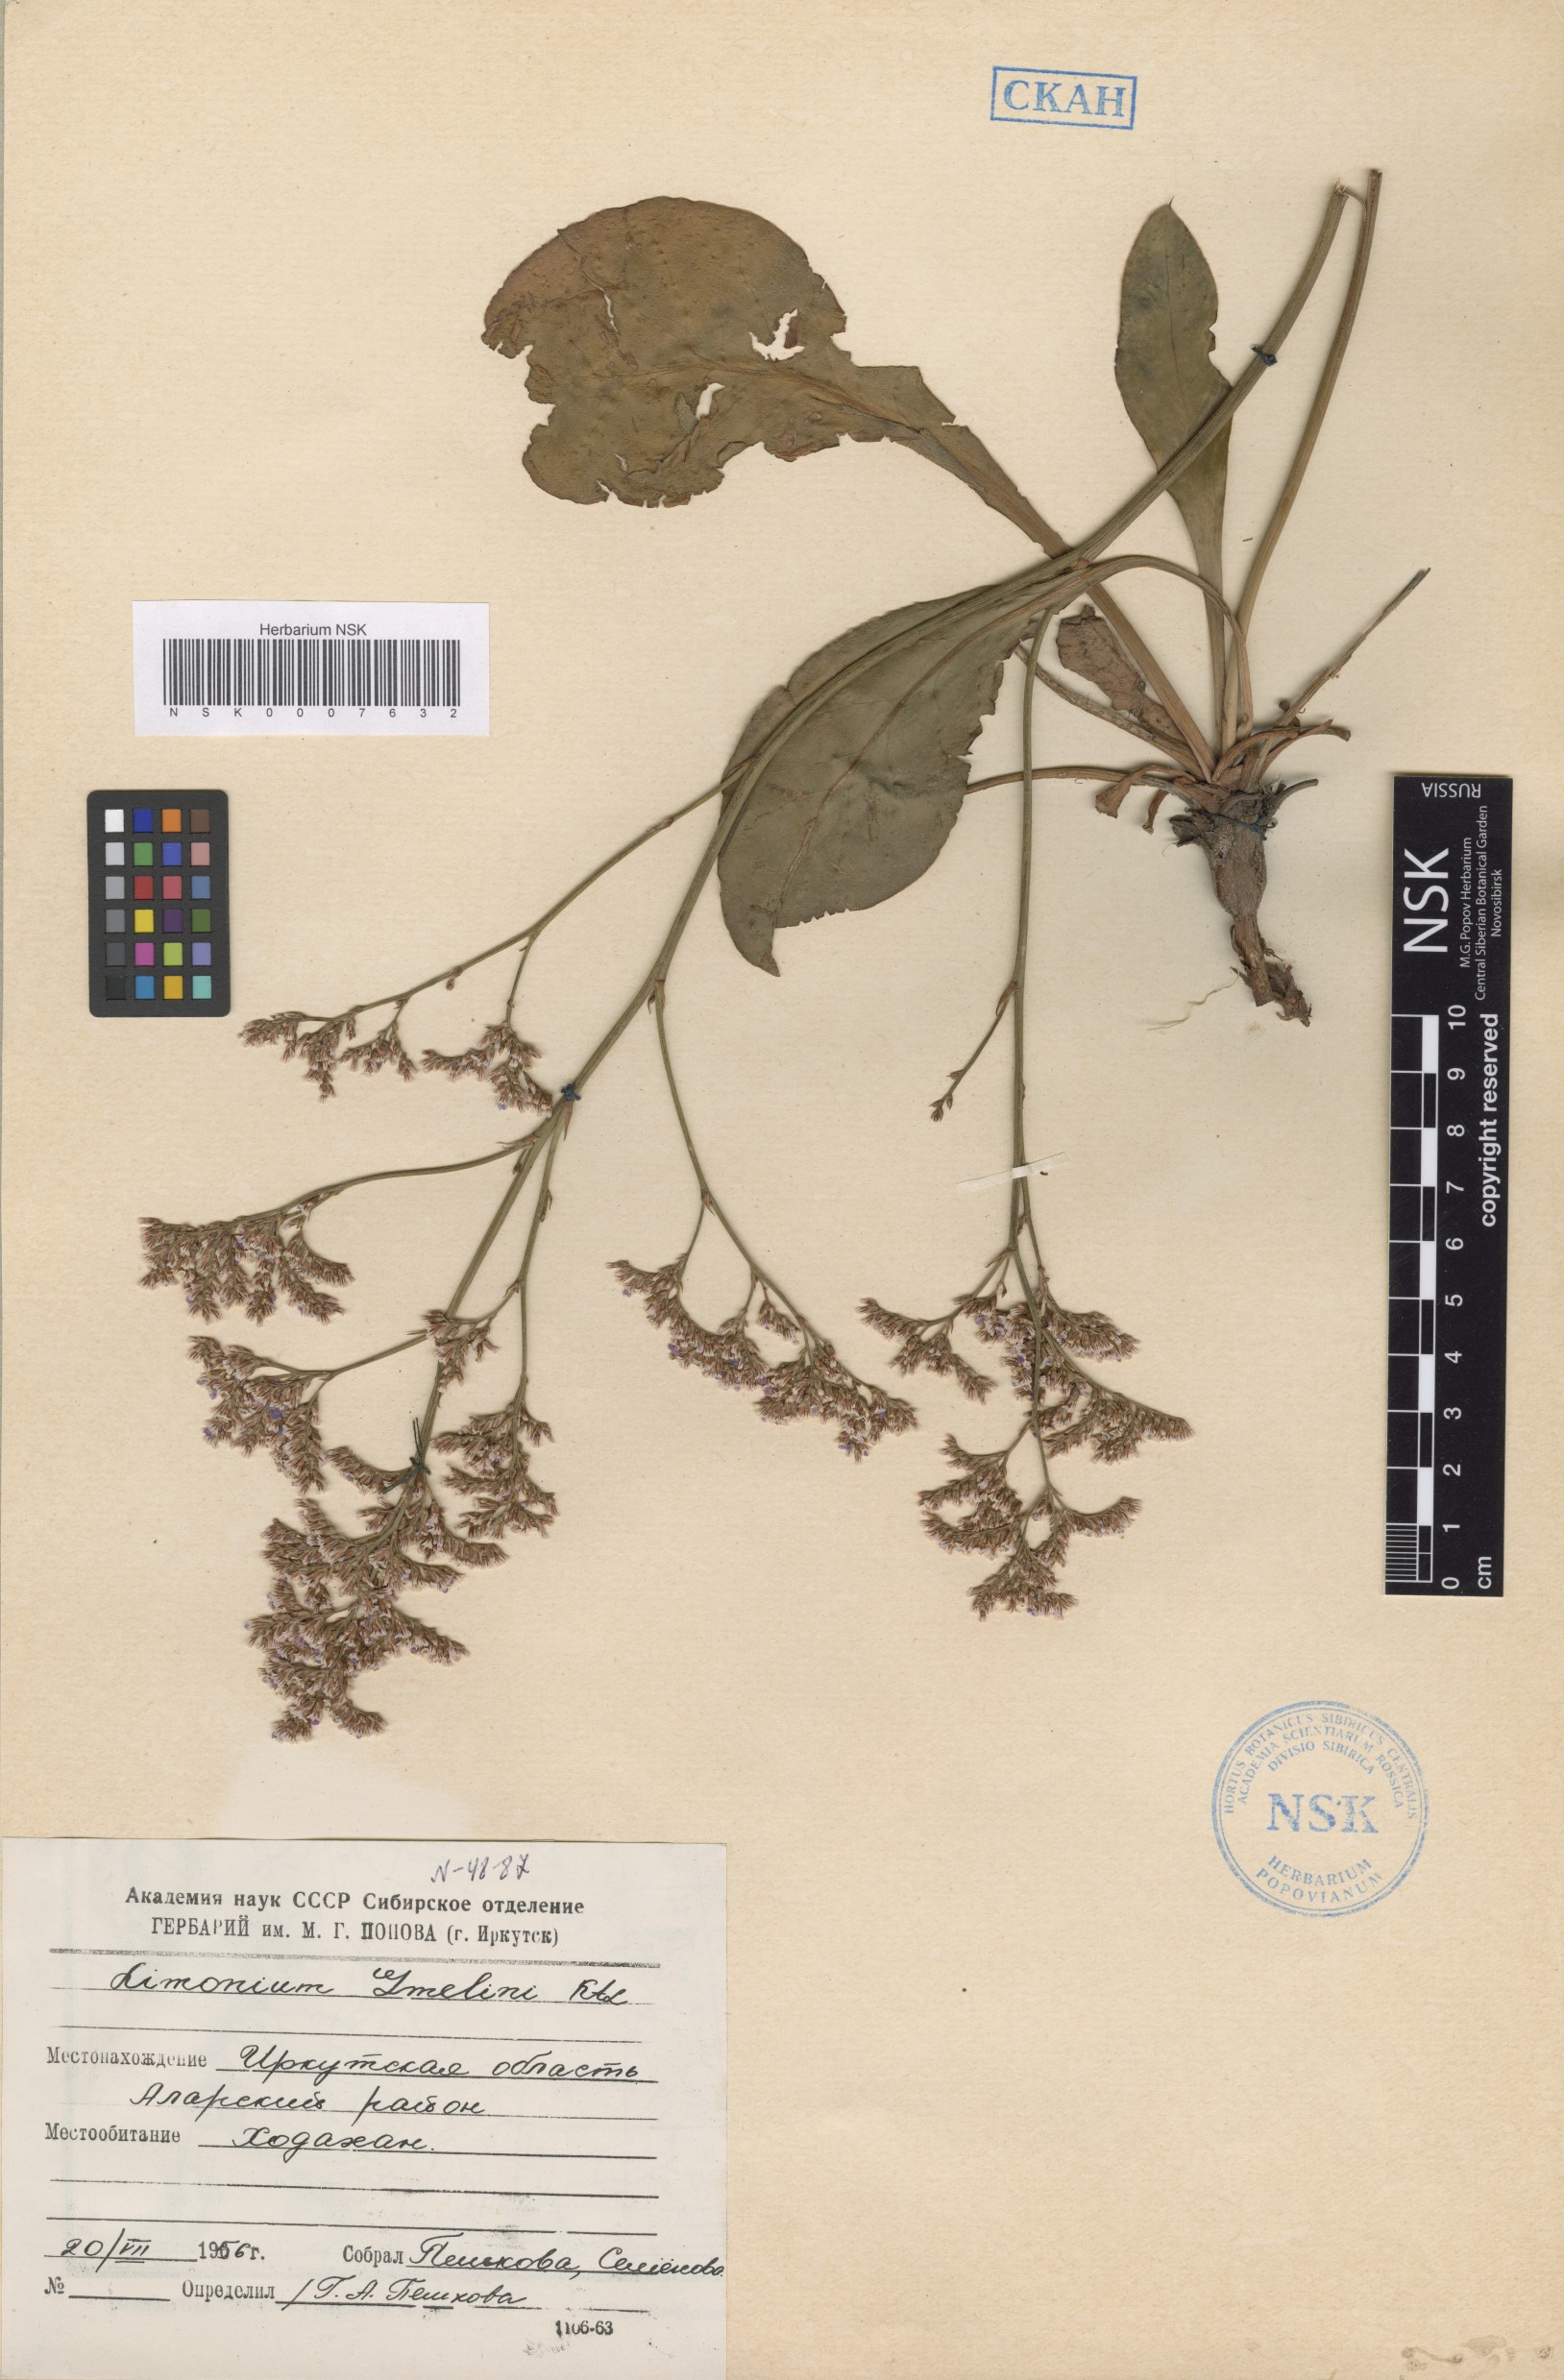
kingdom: Plantae
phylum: Tracheophyta
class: Magnoliopsida
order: Caryophyllales
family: Plumbaginaceae
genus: Limonium
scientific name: Limonium gmelini
